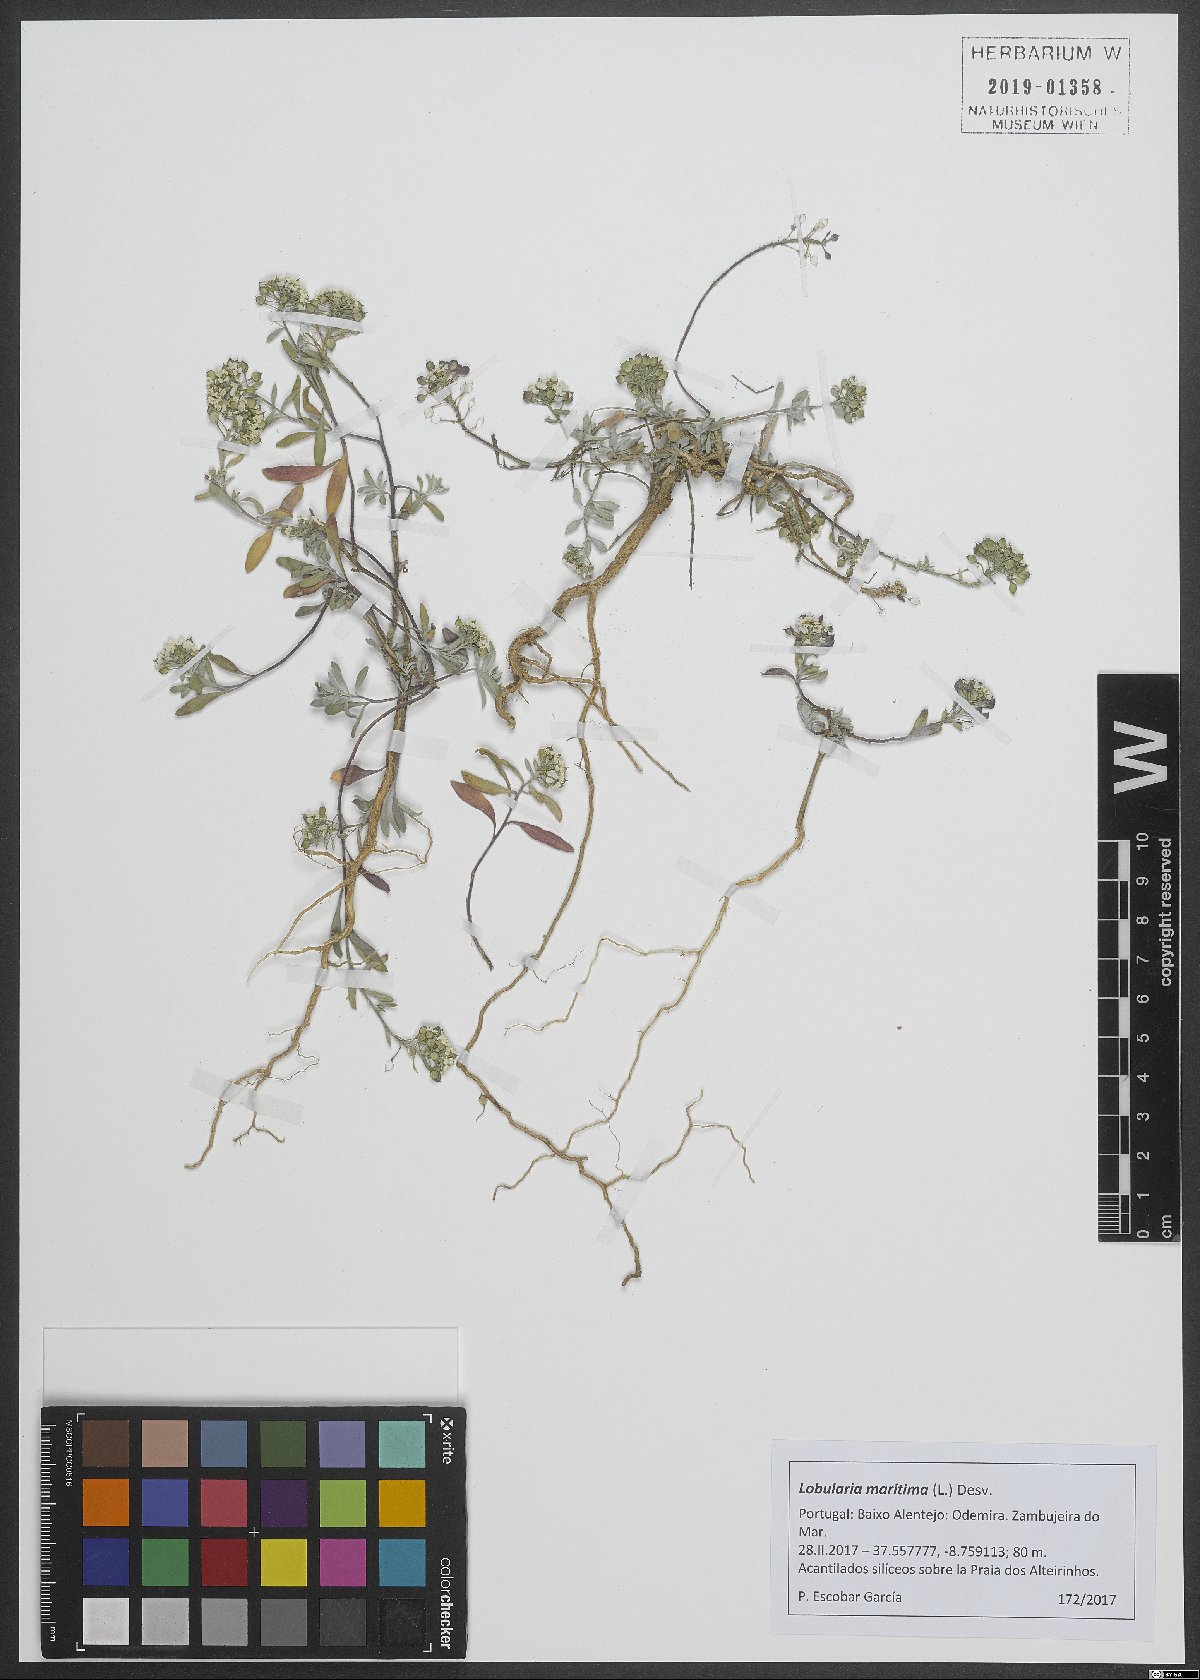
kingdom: Plantae
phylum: Tracheophyta
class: Magnoliopsida
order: Brassicales
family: Brassicaceae
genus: Lobularia
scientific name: Lobularia maritima
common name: Sweet alison
